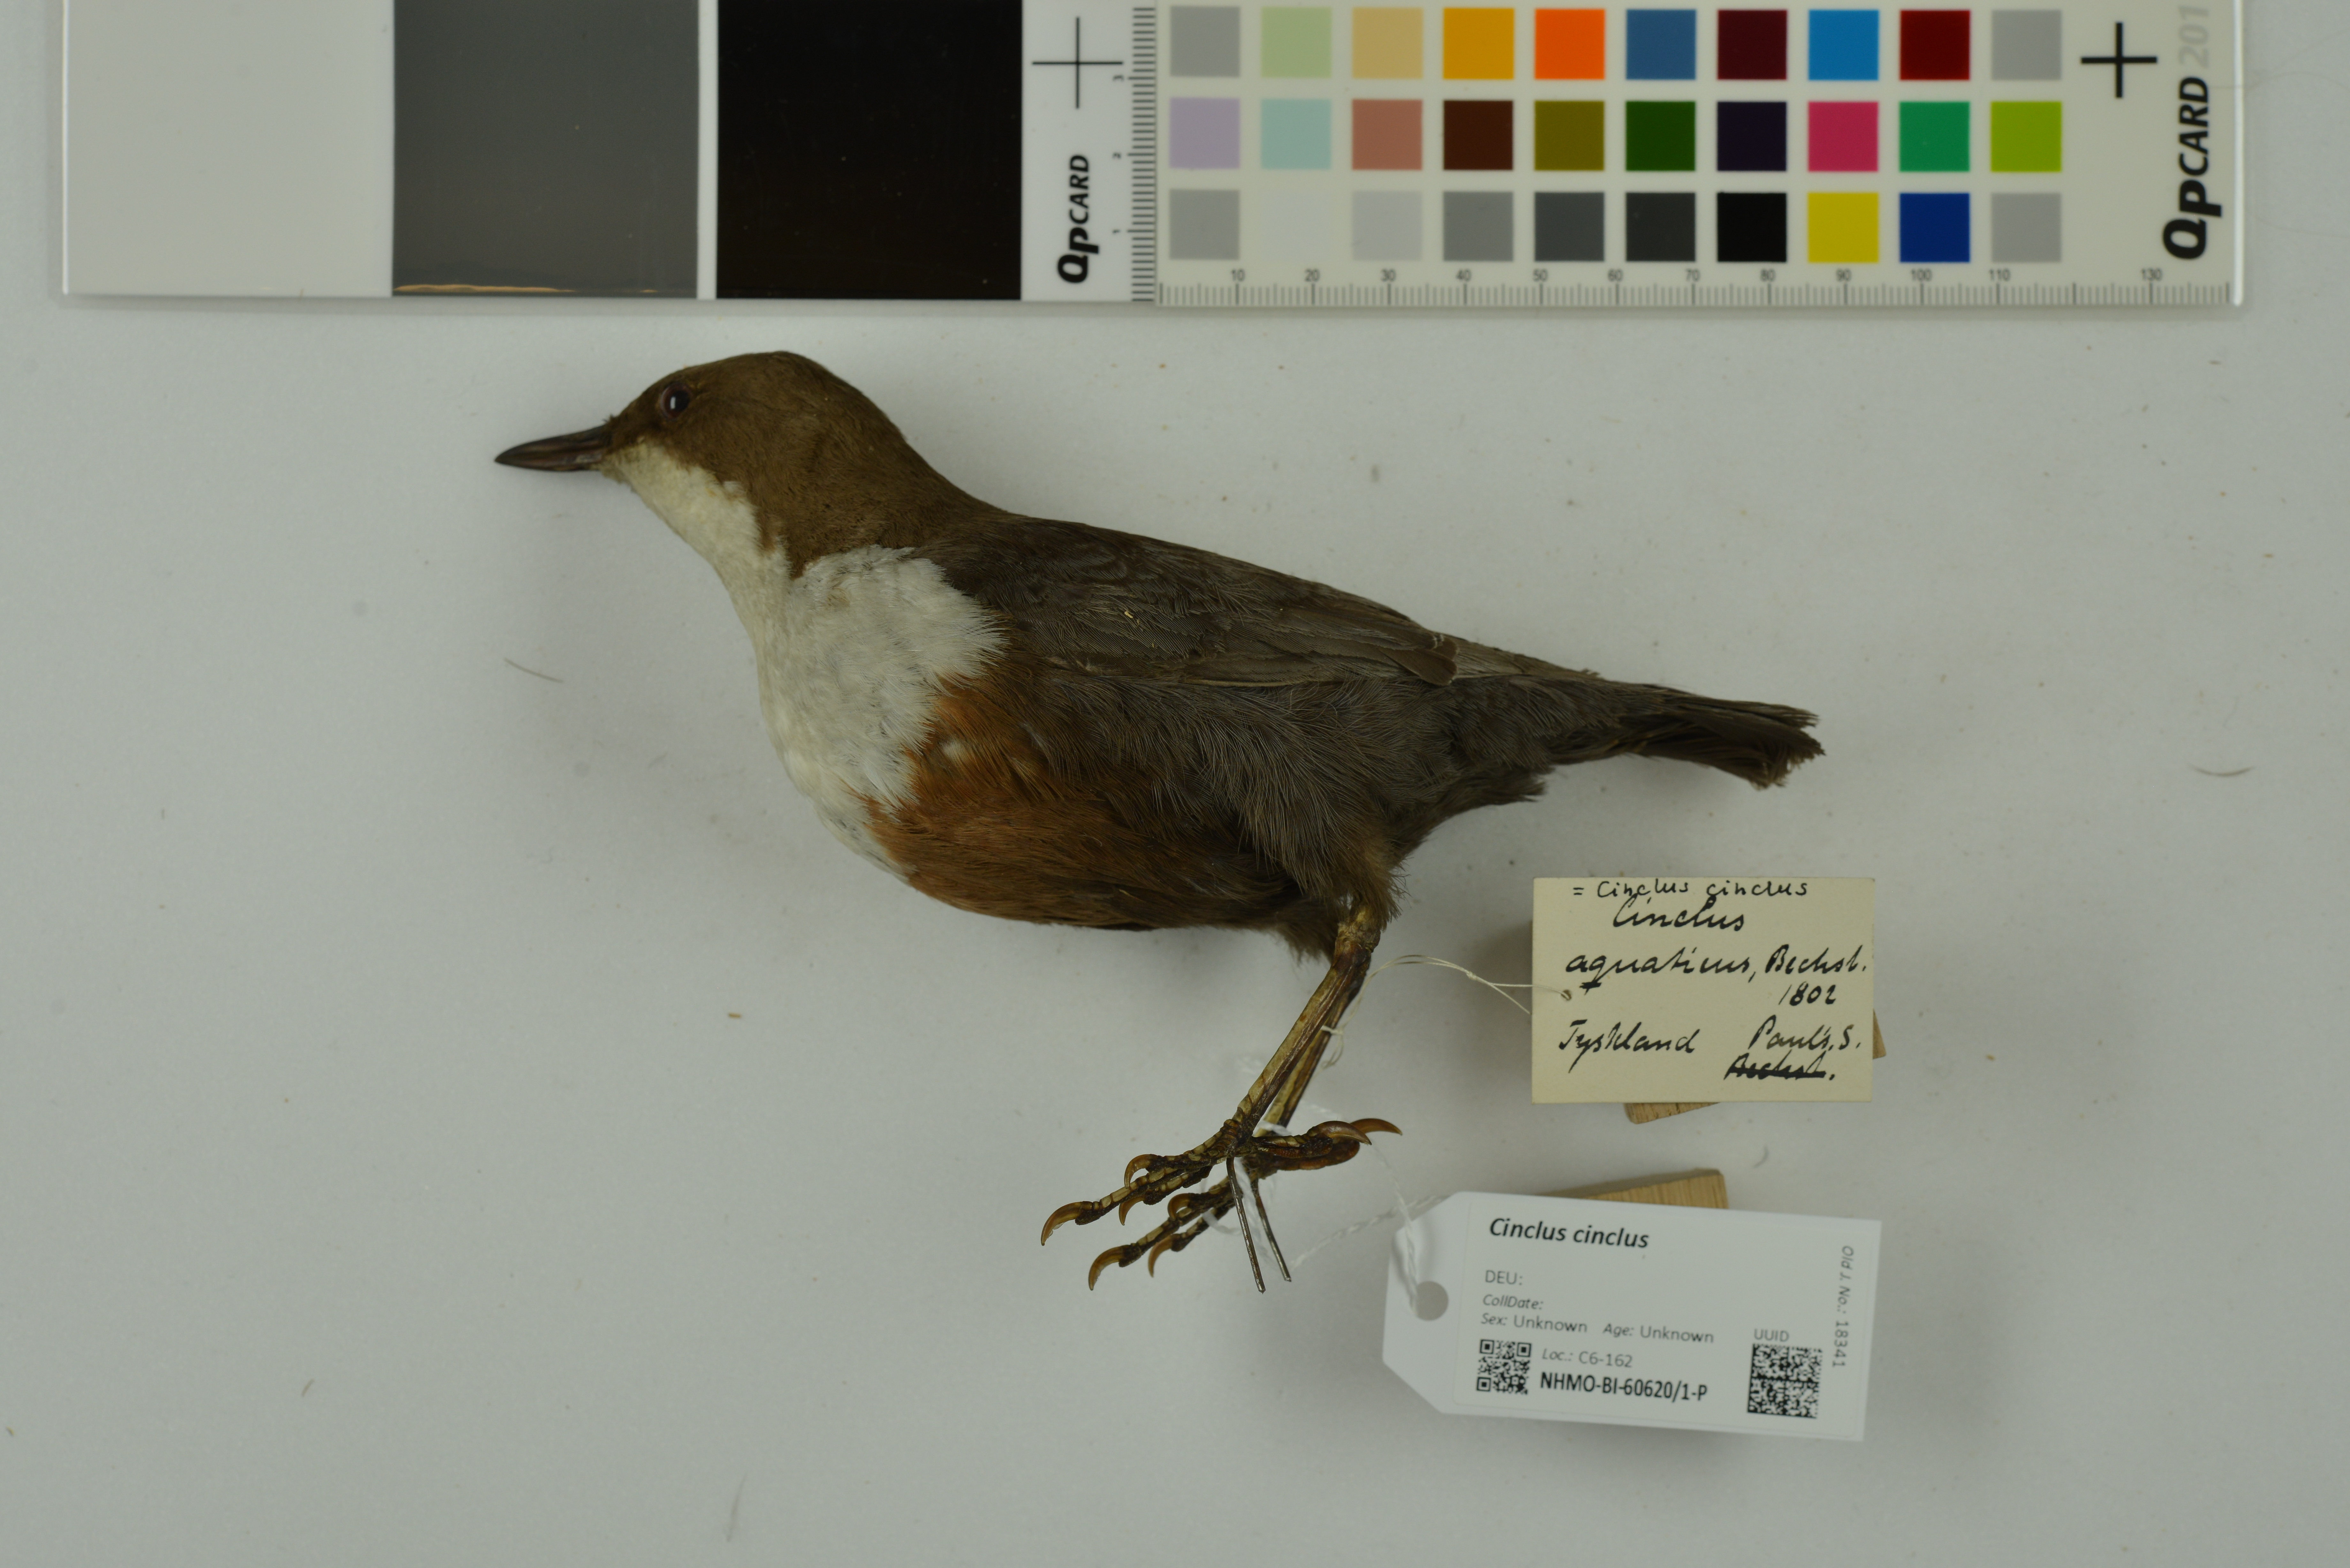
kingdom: Animalia
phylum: Chordata
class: Aves
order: Passeriformes
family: Cinclidae
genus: Cinclus
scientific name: Cinclus cinclus
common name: White-throated dipper
